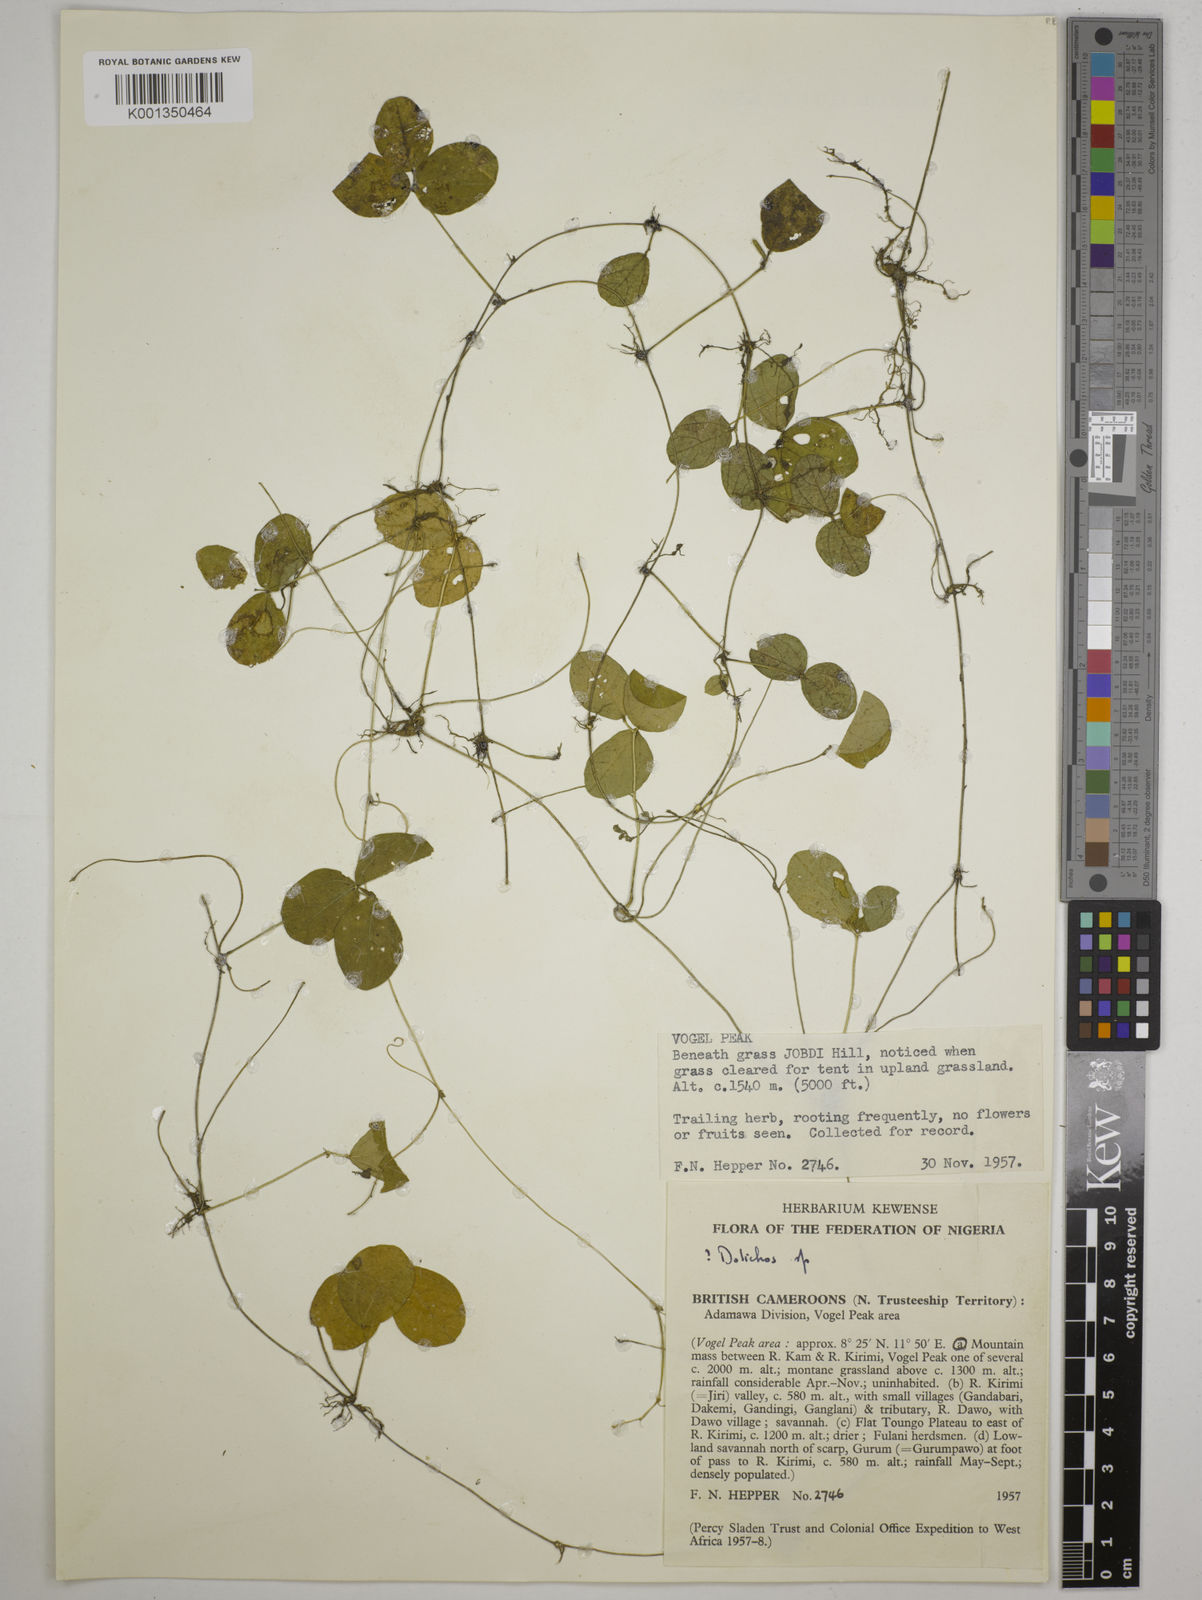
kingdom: Plantae
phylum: Tracheophyta
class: Magnoliopsida
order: Fabales
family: Fabaceae
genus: Dolichos
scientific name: Dolichos
